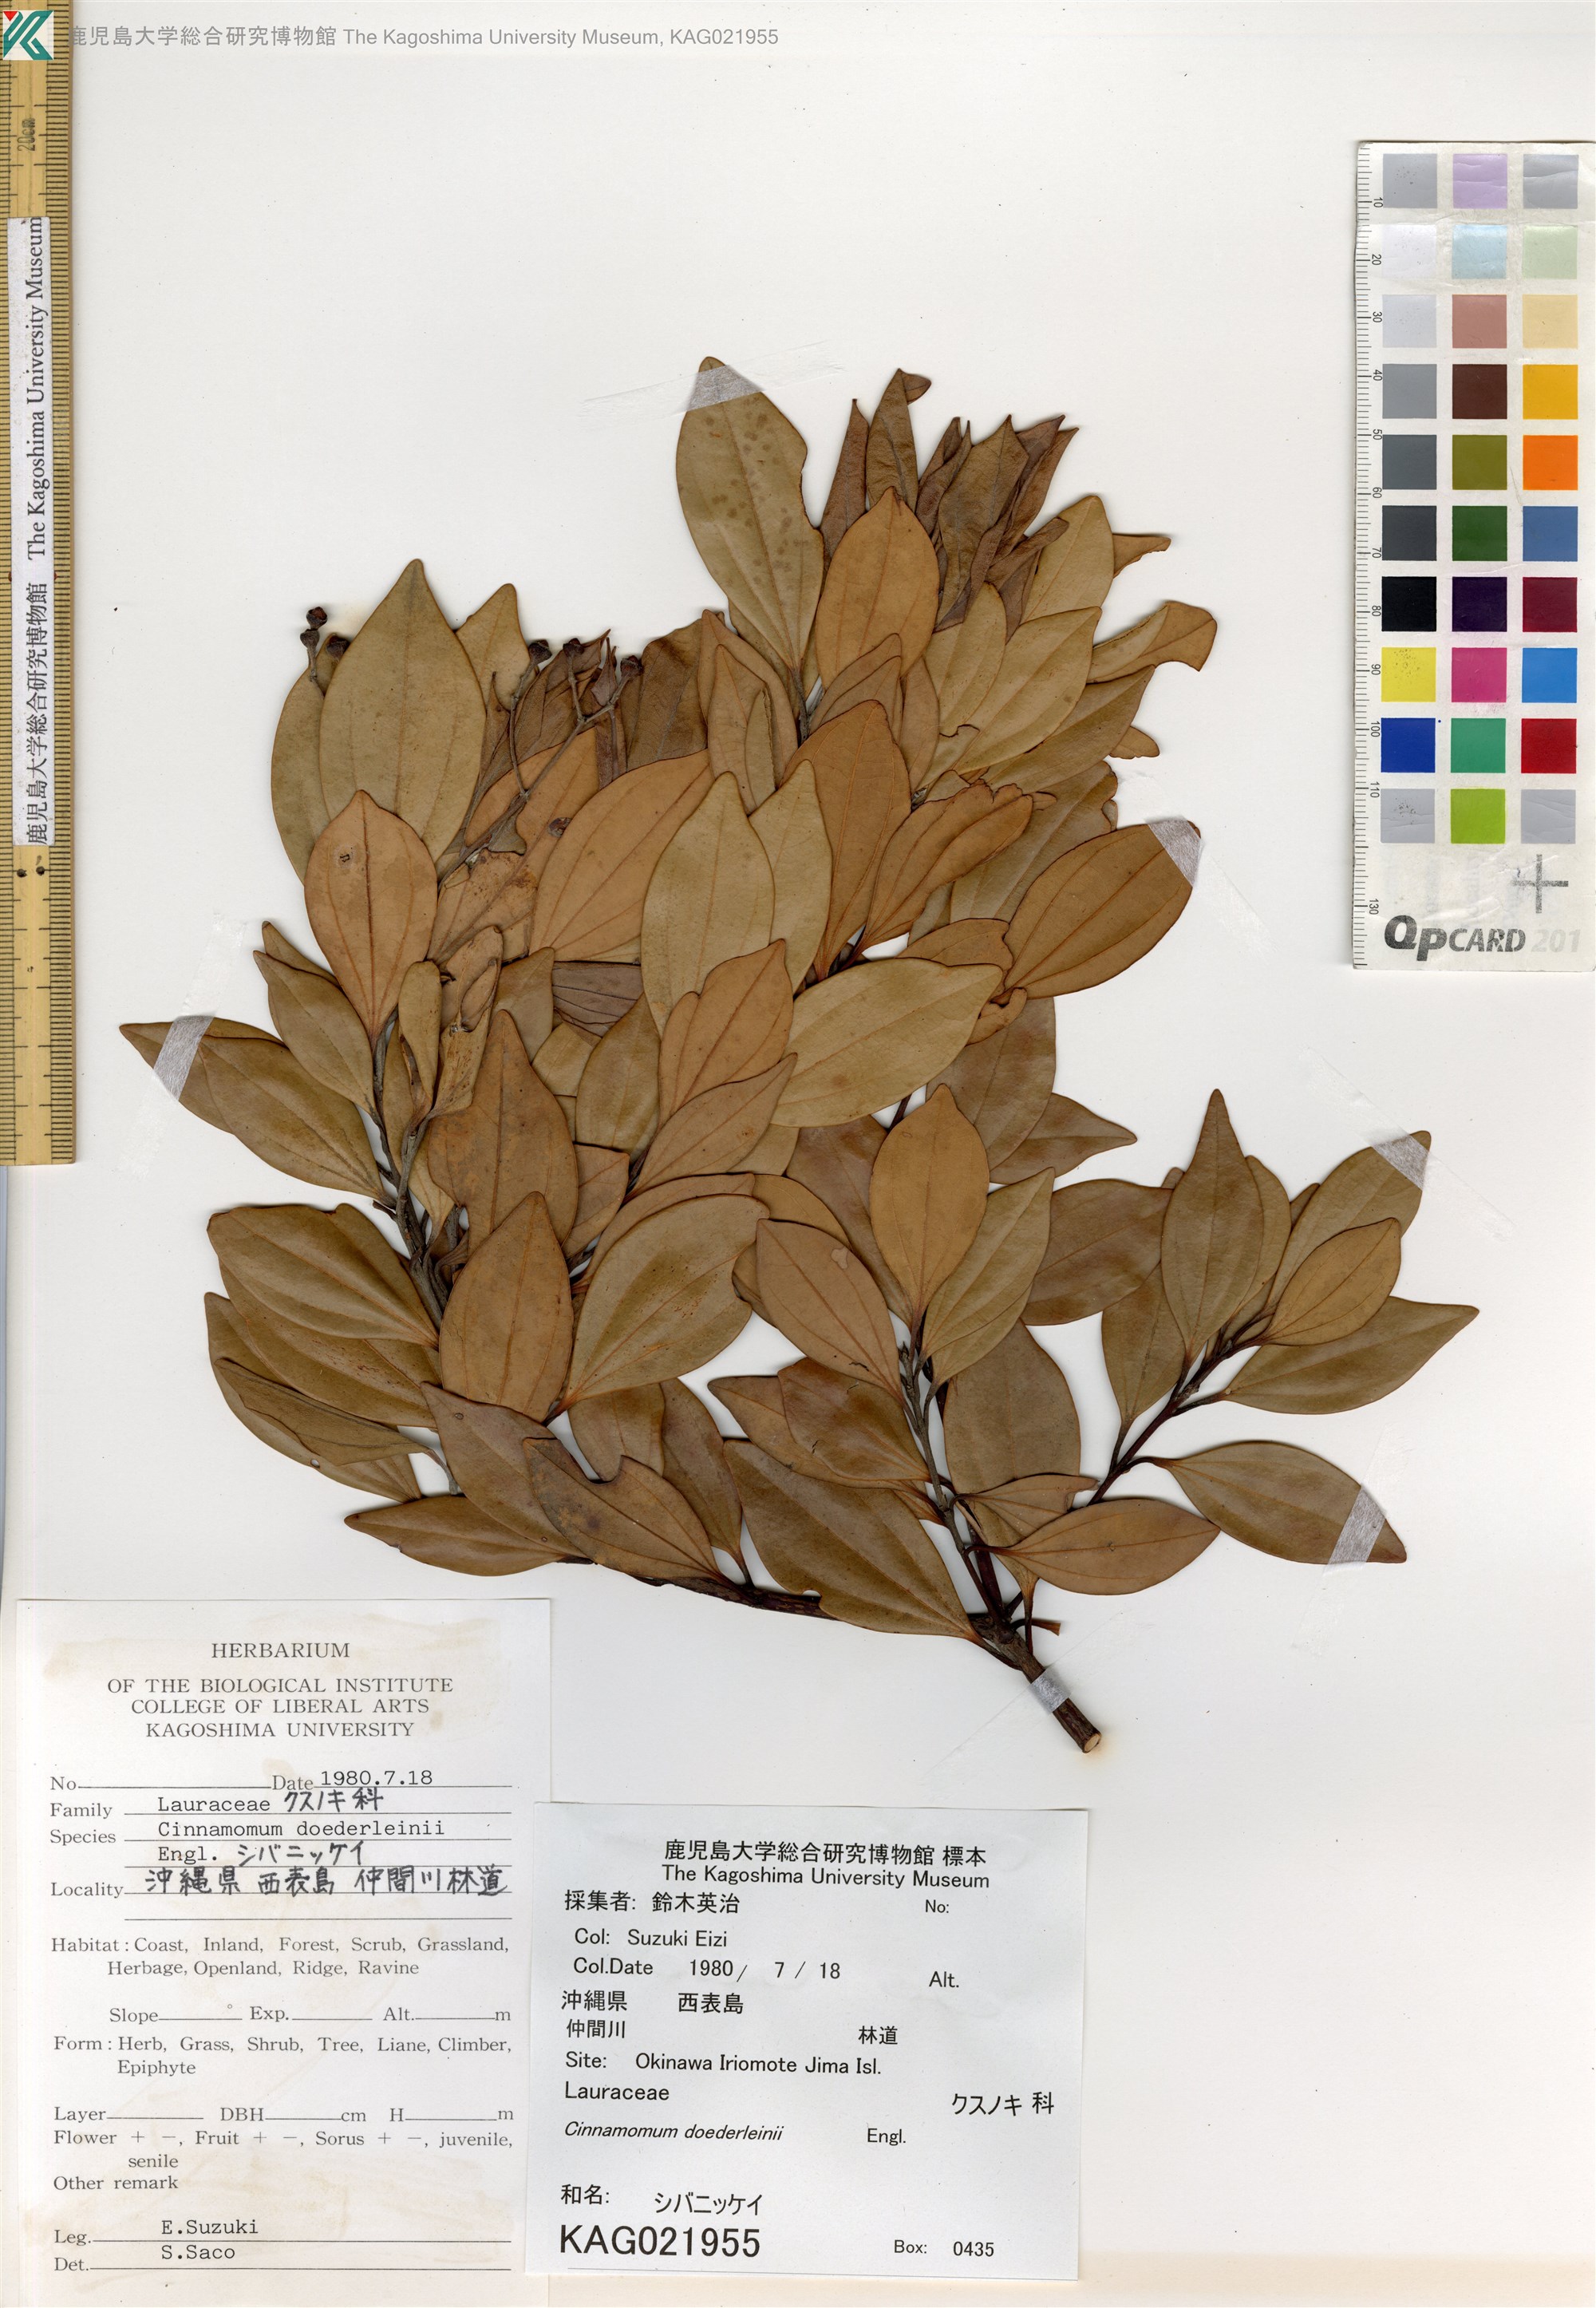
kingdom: Plantae
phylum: Tracheophyta
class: Magnoliopsida
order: Laurales
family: Lauraceae
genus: Cinnamomum
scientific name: Cinnamomum doederleinii
